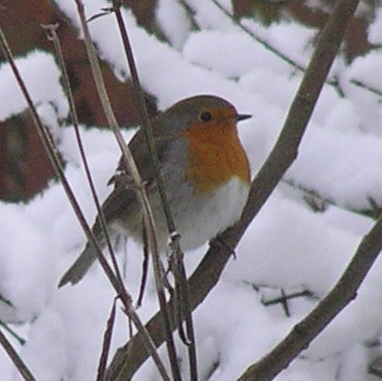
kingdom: Animalia
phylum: Chordata
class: Aves
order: Passeriformes
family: Muscicapidae
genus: Erithacus
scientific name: Erithacus rubecula
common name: Rødhals/rødkælk
